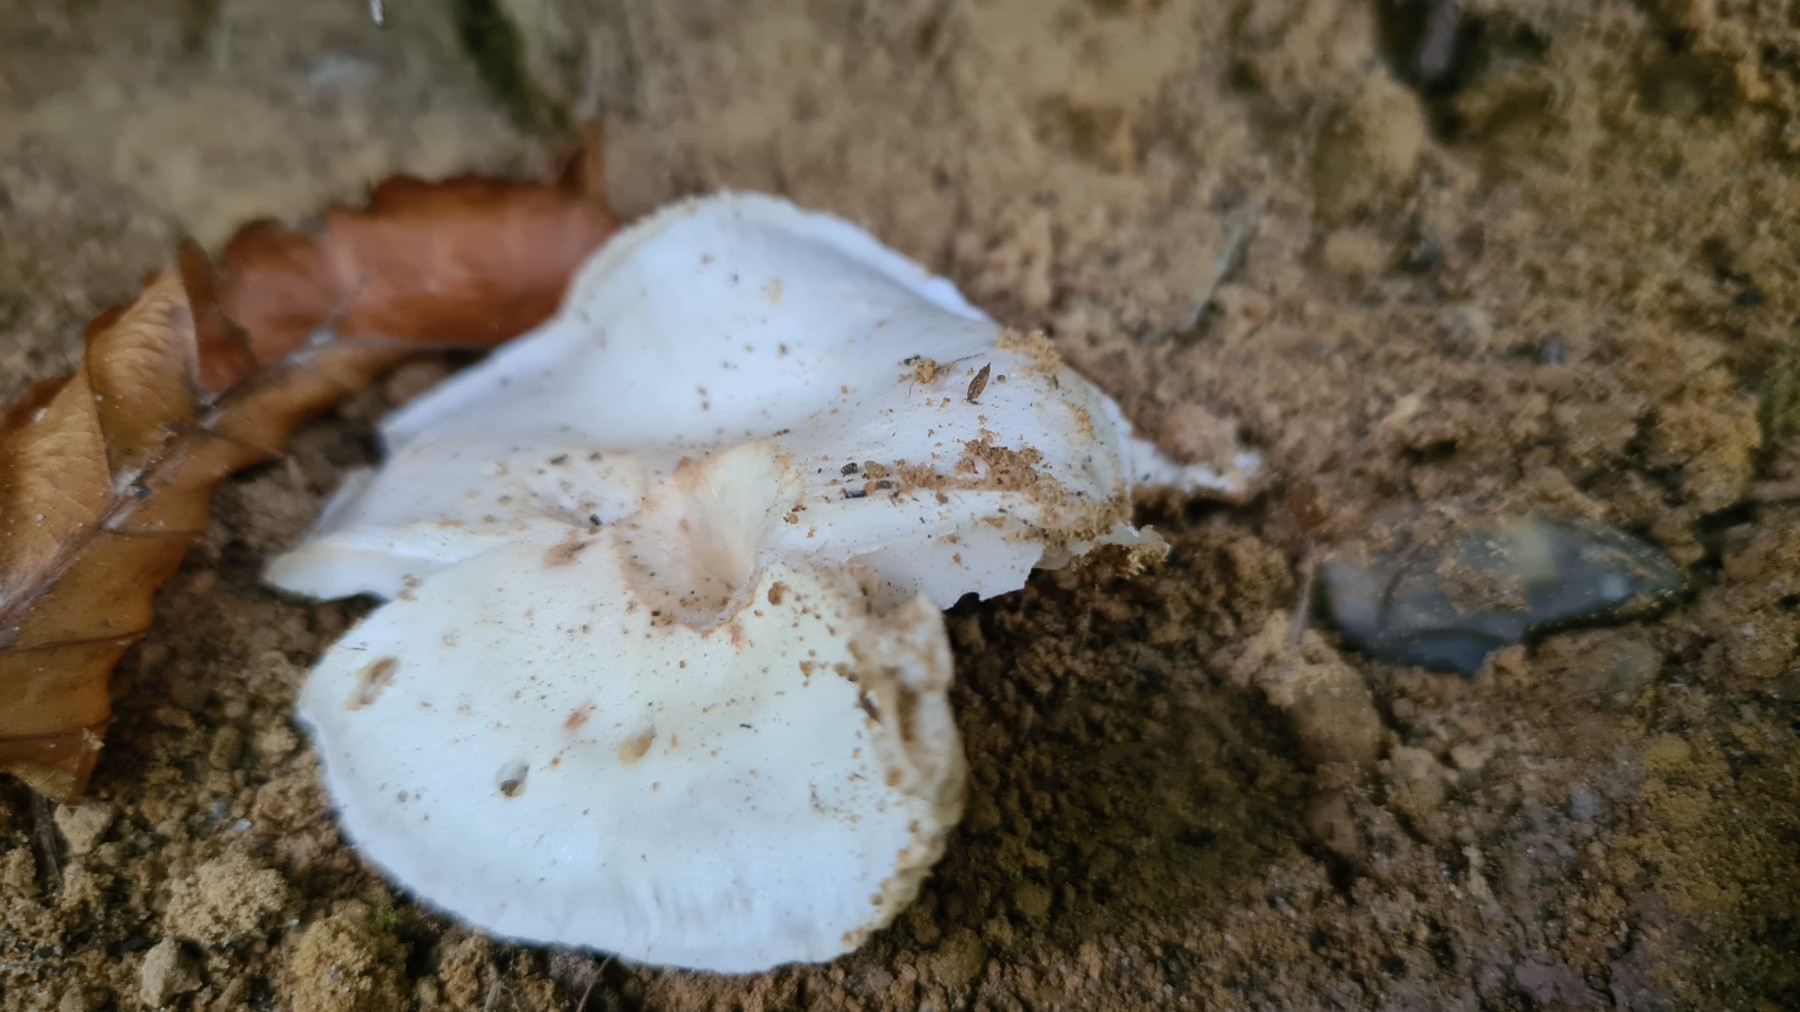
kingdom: Fungi
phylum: Basidiomycota
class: Agaricomycetes
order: Agaricales
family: Hygrophoraceae
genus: Hygrophorus
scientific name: Hygrophorus penarius
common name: spiselig sneglehat
